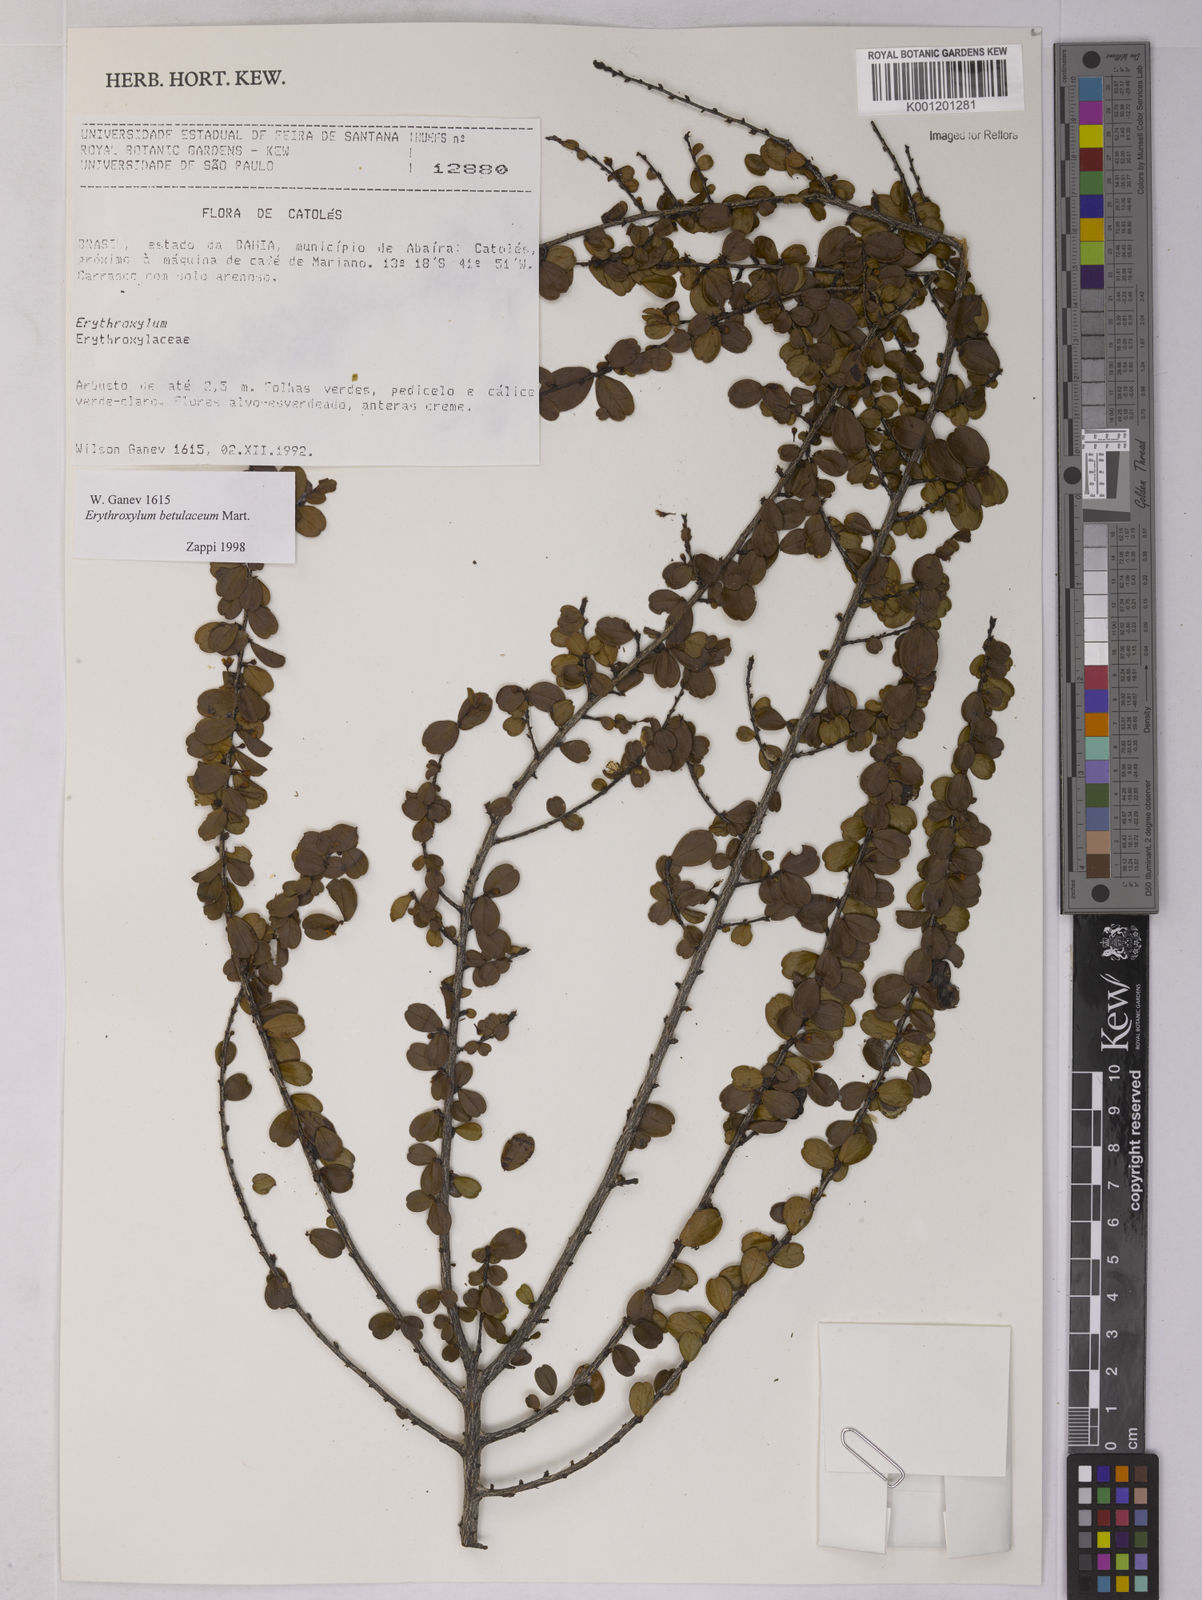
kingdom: Plantae
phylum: Tracheophyta
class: Magnoliopsida
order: Malpighiales
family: Erythroxylaceae
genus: Erythroxylum
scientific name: Erythroxylum betulaceum
